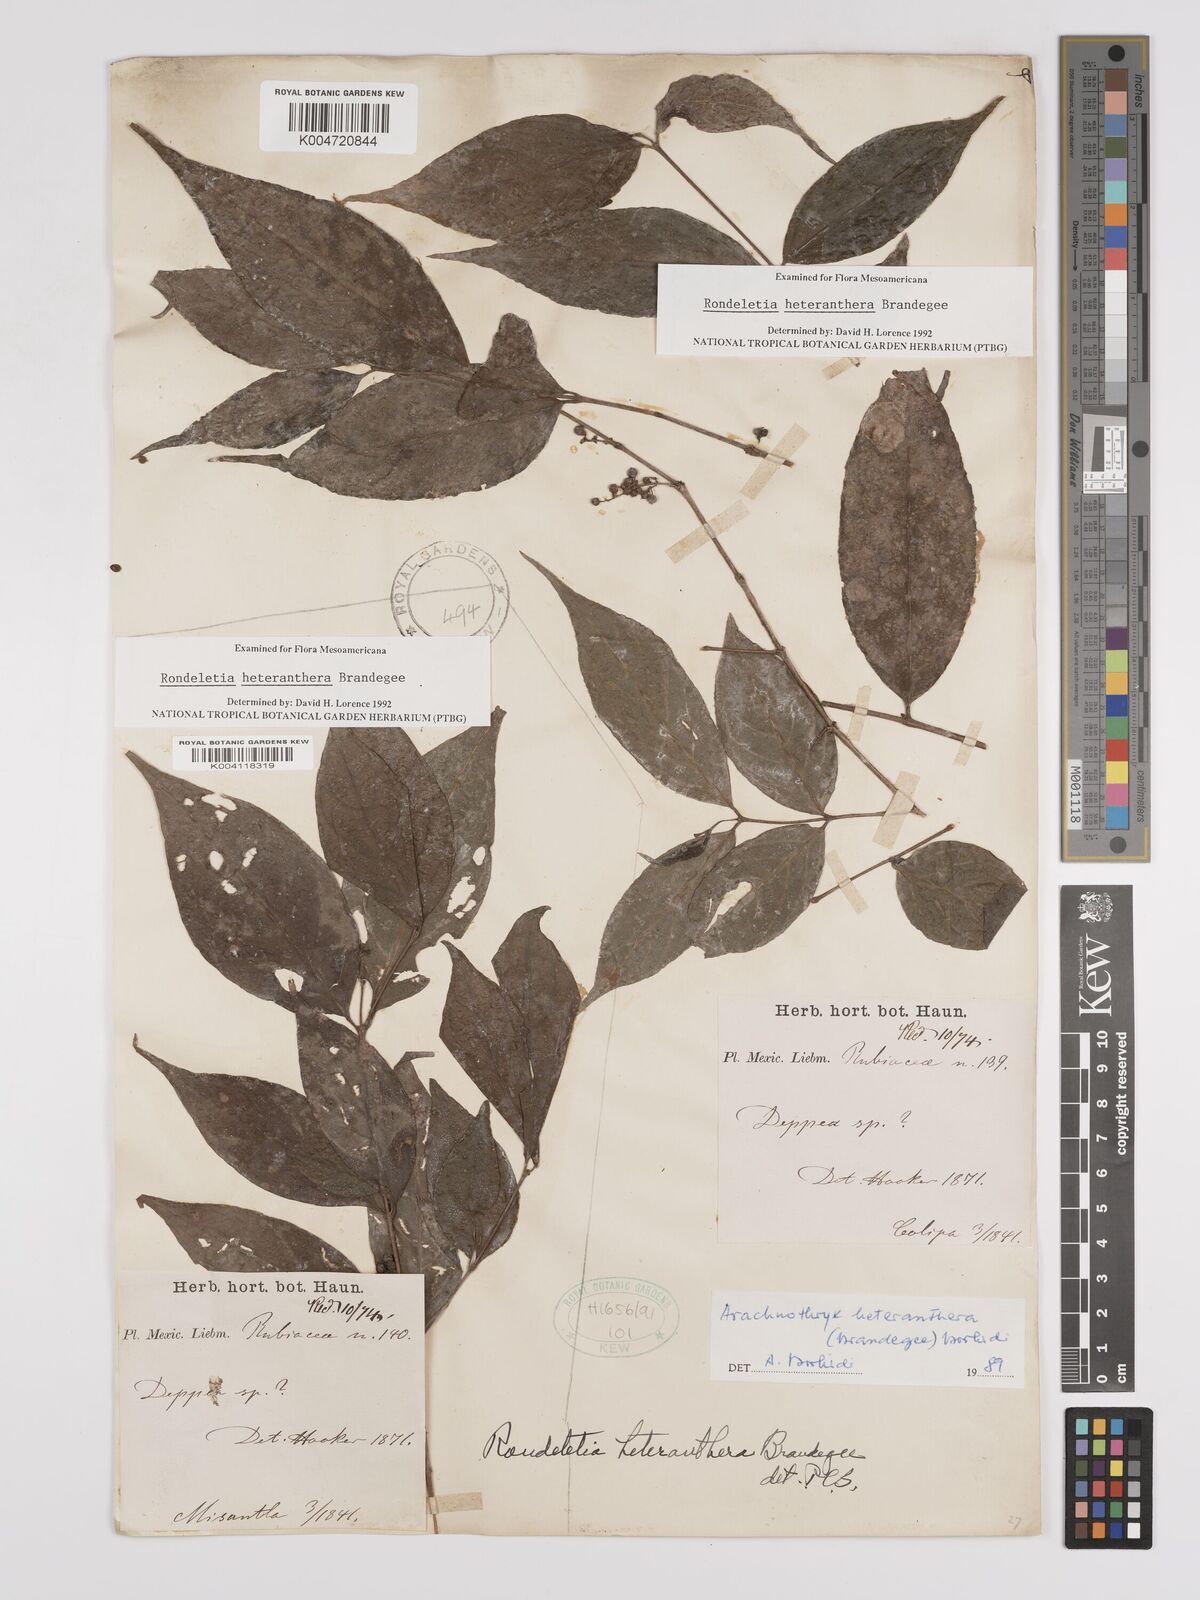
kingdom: Plantae
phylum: Tracheophyta
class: Magnoliopsida
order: Gentianales
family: Rubiaceae
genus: Arachnothryx
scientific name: Arachnothryx heteranthera
